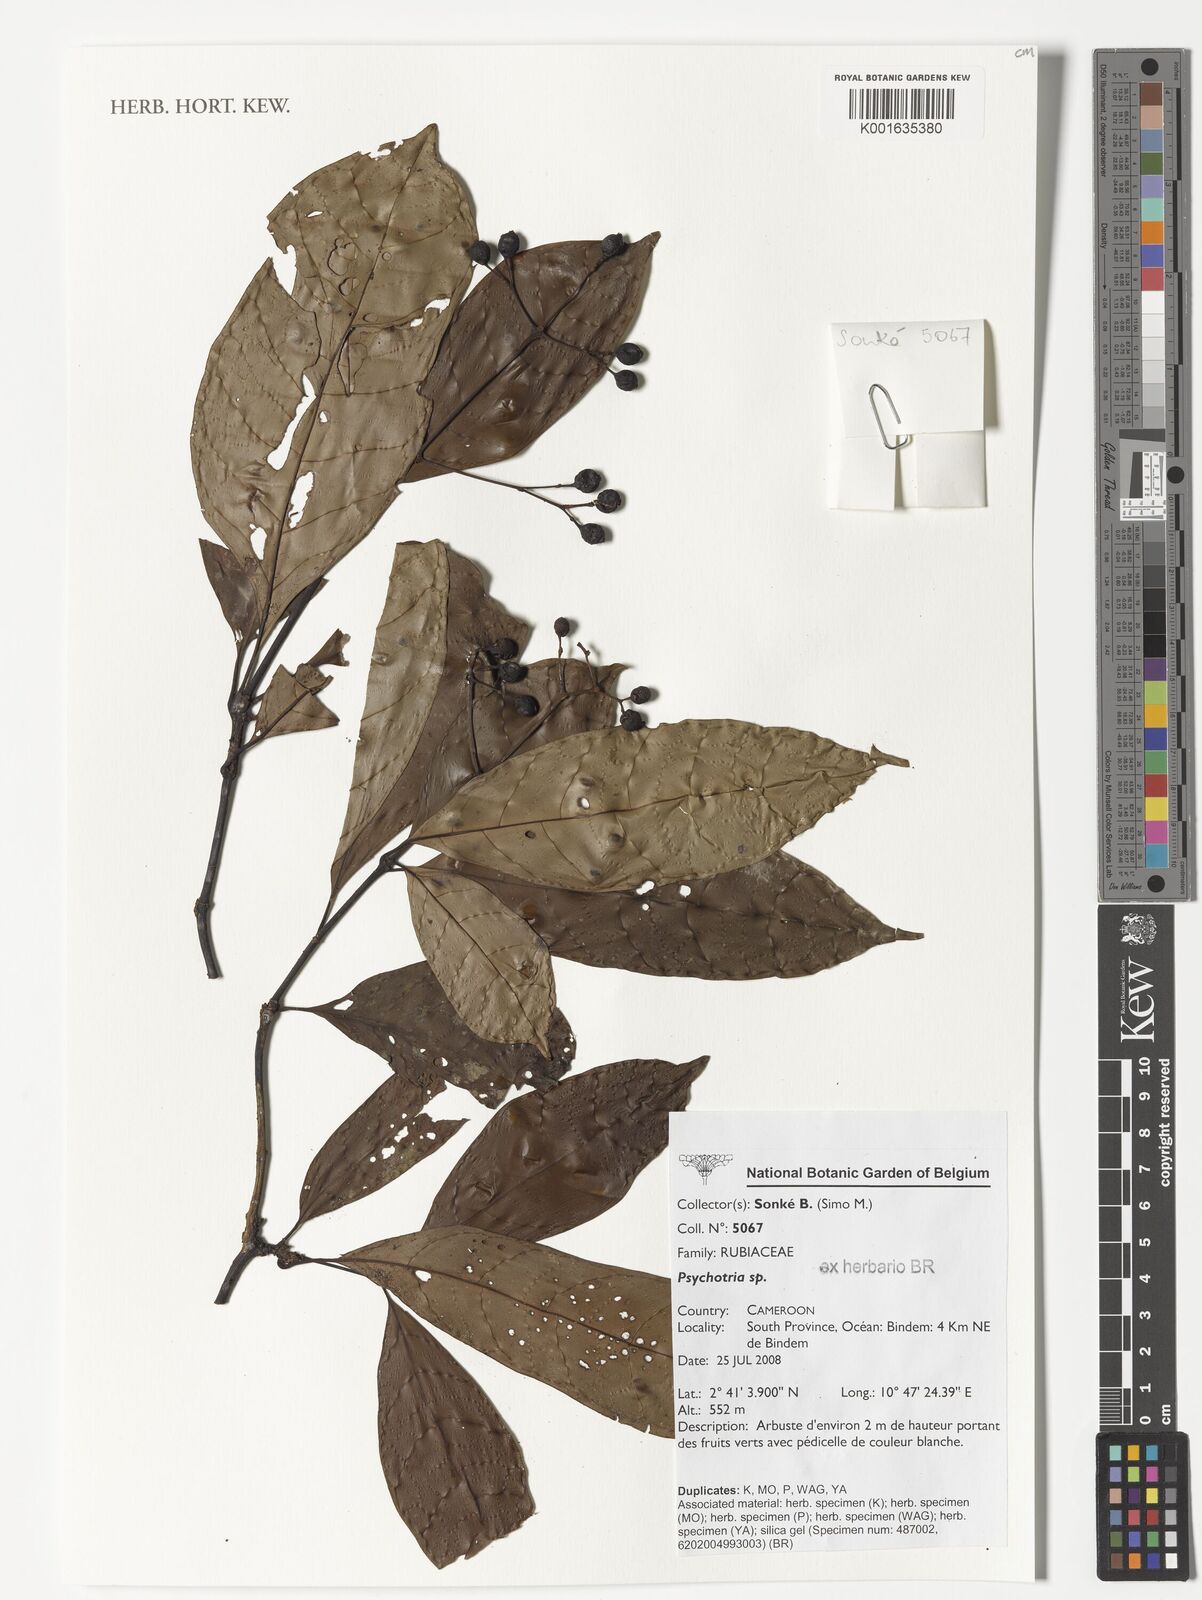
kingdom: Plantae
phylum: Tracheophyta
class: Magnoliopsida
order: Gentianales
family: Rubiaceae
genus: Psychotria
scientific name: Psychotria
